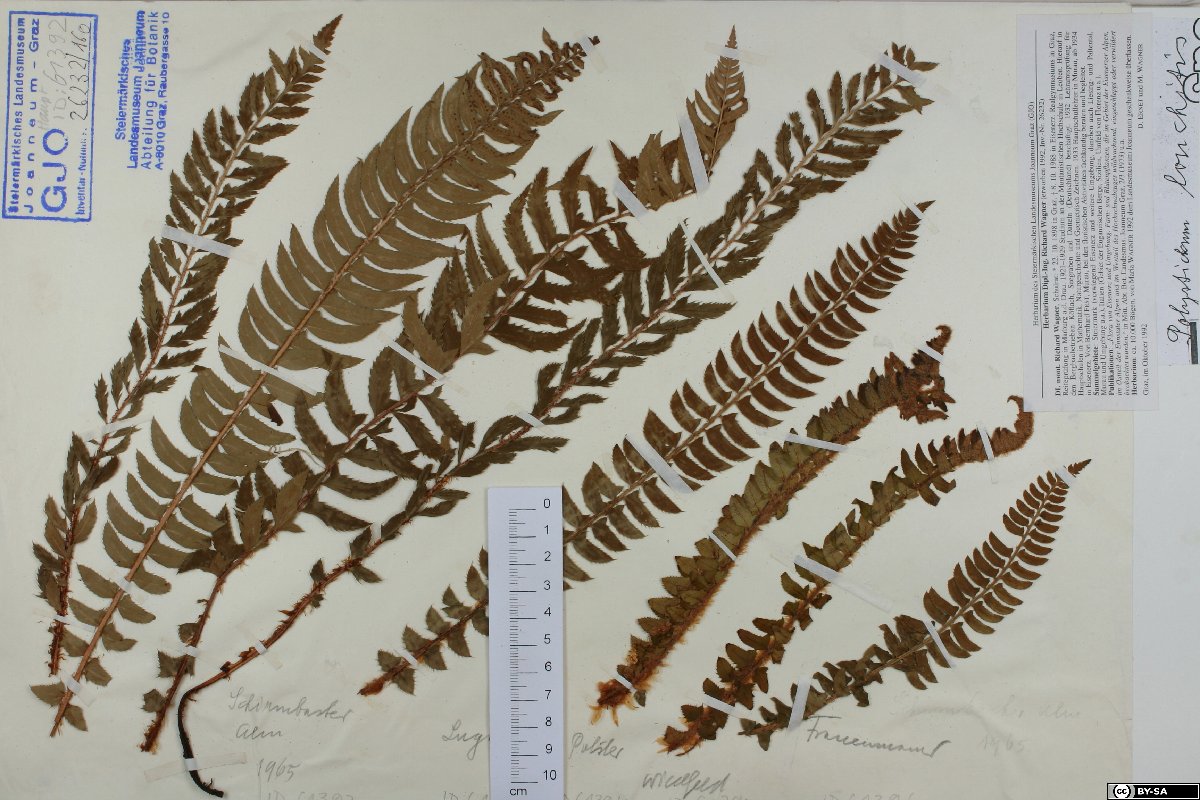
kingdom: Plantae
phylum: Tracheophyta
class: Polypodiopsida
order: Polypodiales
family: Dryopteridaceae
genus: Polystichum
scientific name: Polystichum lonchitis
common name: Holly fern
